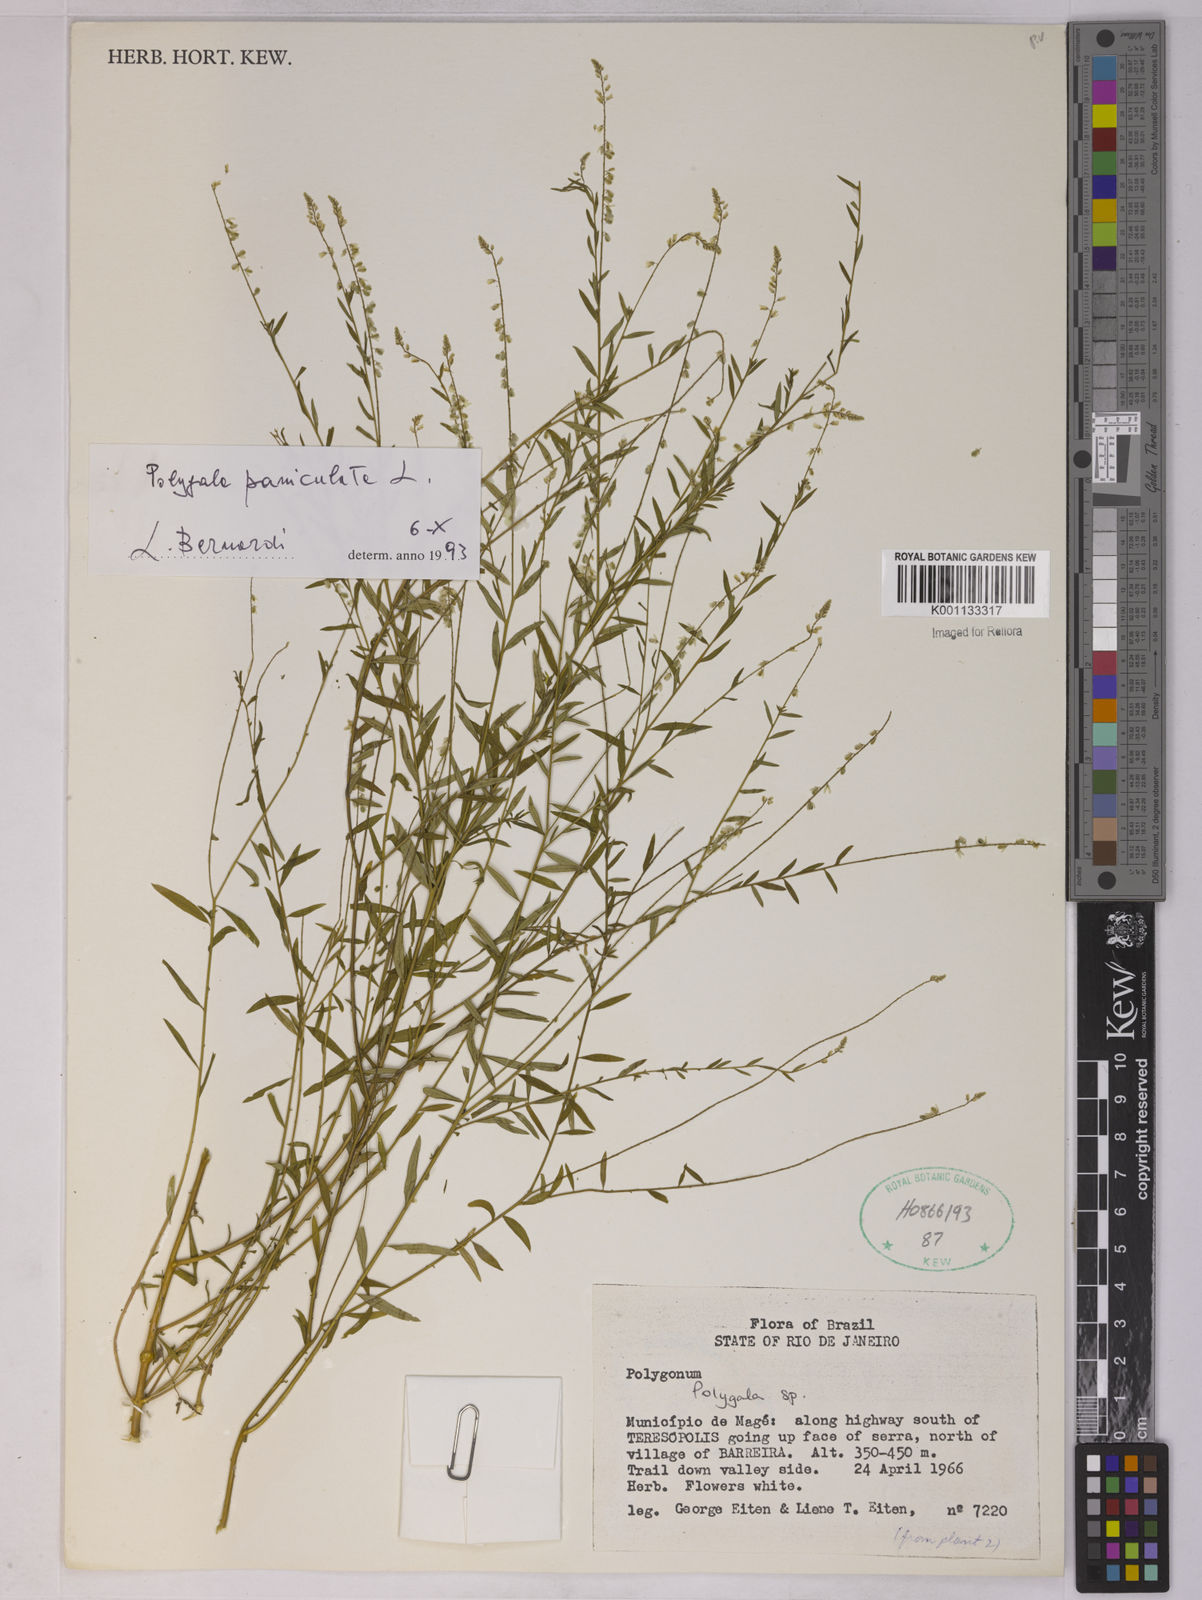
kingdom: Plantae
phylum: Tracheophyta
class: Magnoliopsida
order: Fabales
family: Polygalaceae
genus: Polygala
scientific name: Polygala paniculata
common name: Orosne
